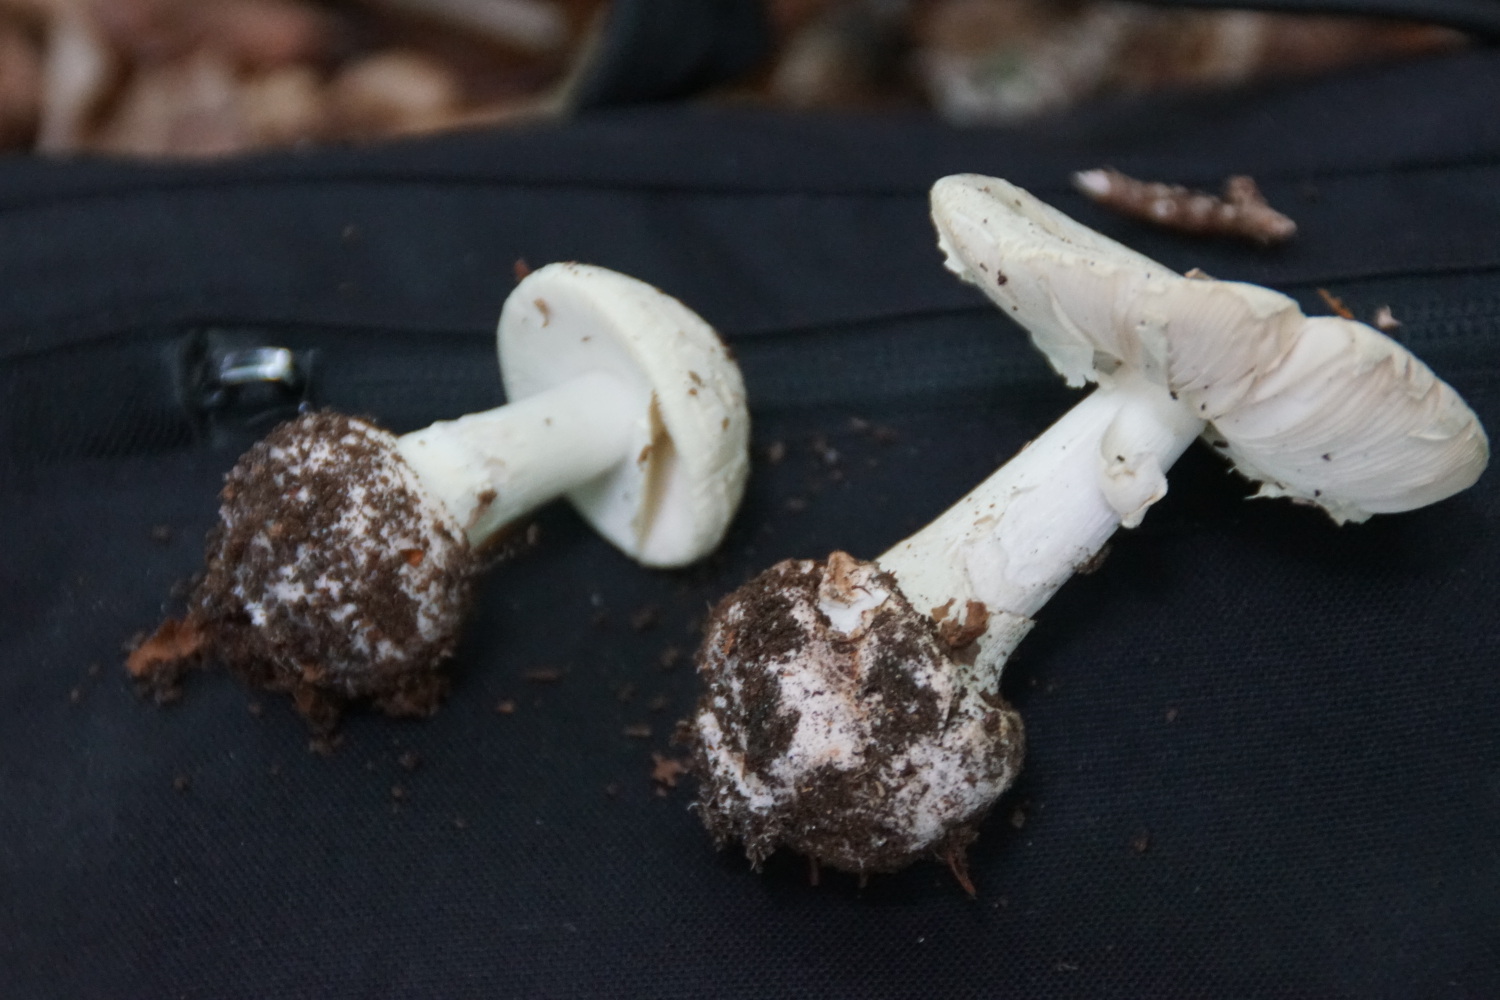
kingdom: Fungi
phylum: Basidiomycota
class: Agaricomycetes
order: Agaricales
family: Amanitaceae
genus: Amanita
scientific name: Amanita citrina
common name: False death-cap
